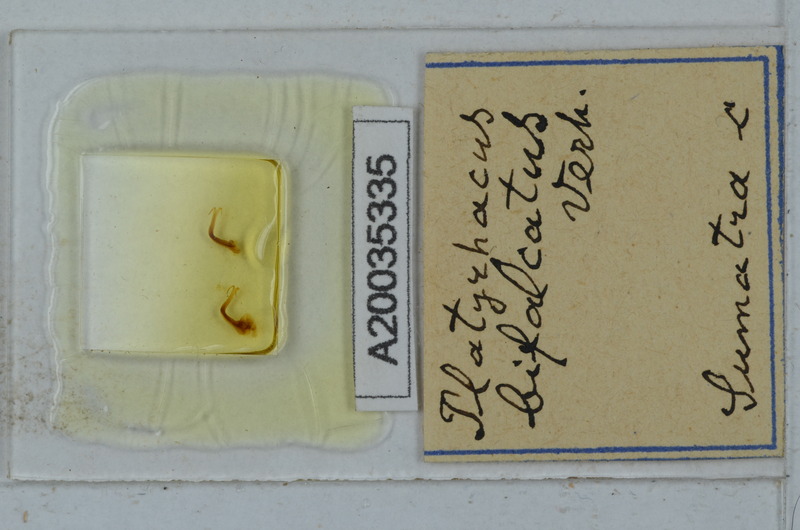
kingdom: Animalia
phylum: Arthropoda
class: Diplopoda
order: Polydesmida
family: Platyrhacidae
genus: Barydesmus
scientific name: Barydesmus bifasciatus
